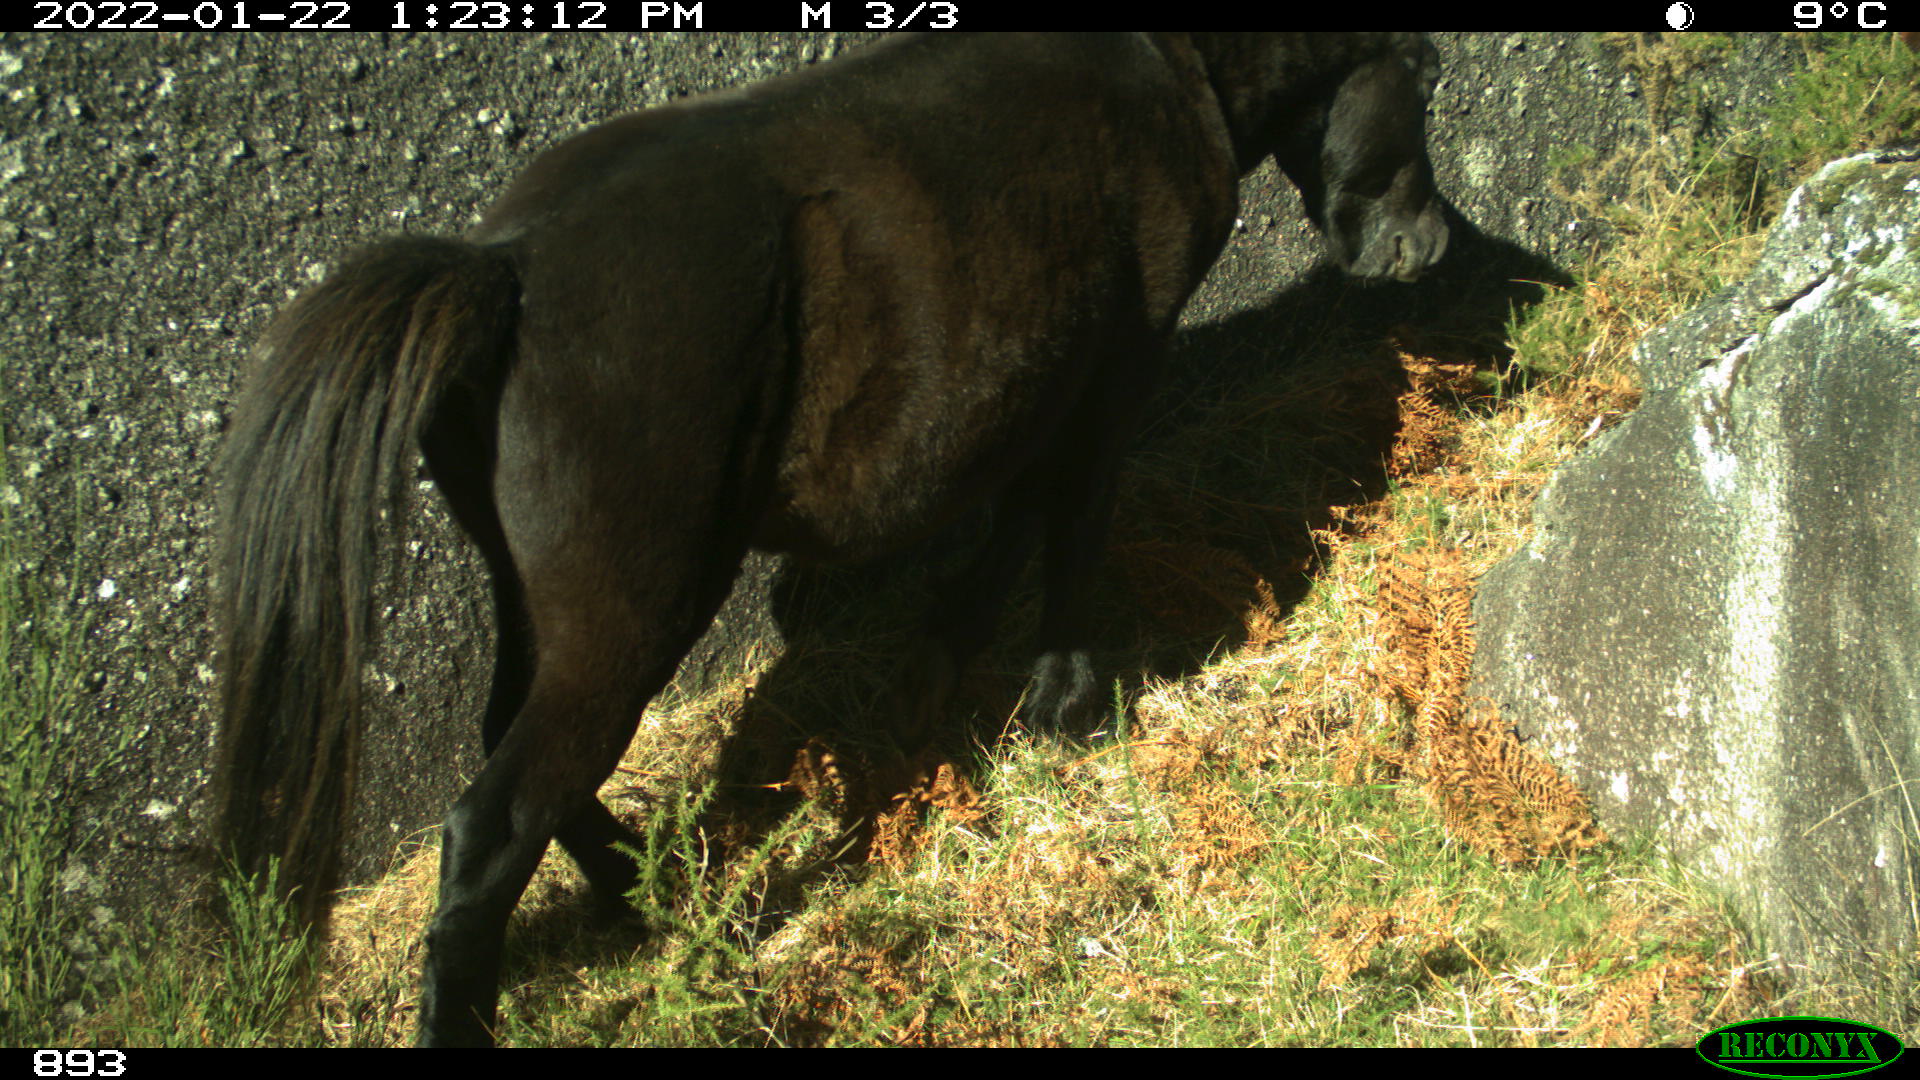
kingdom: Animalia
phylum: Chordata
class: Mammalia
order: Perissodactyla
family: Equidae
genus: Equus
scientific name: Equus caballus
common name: Horse
